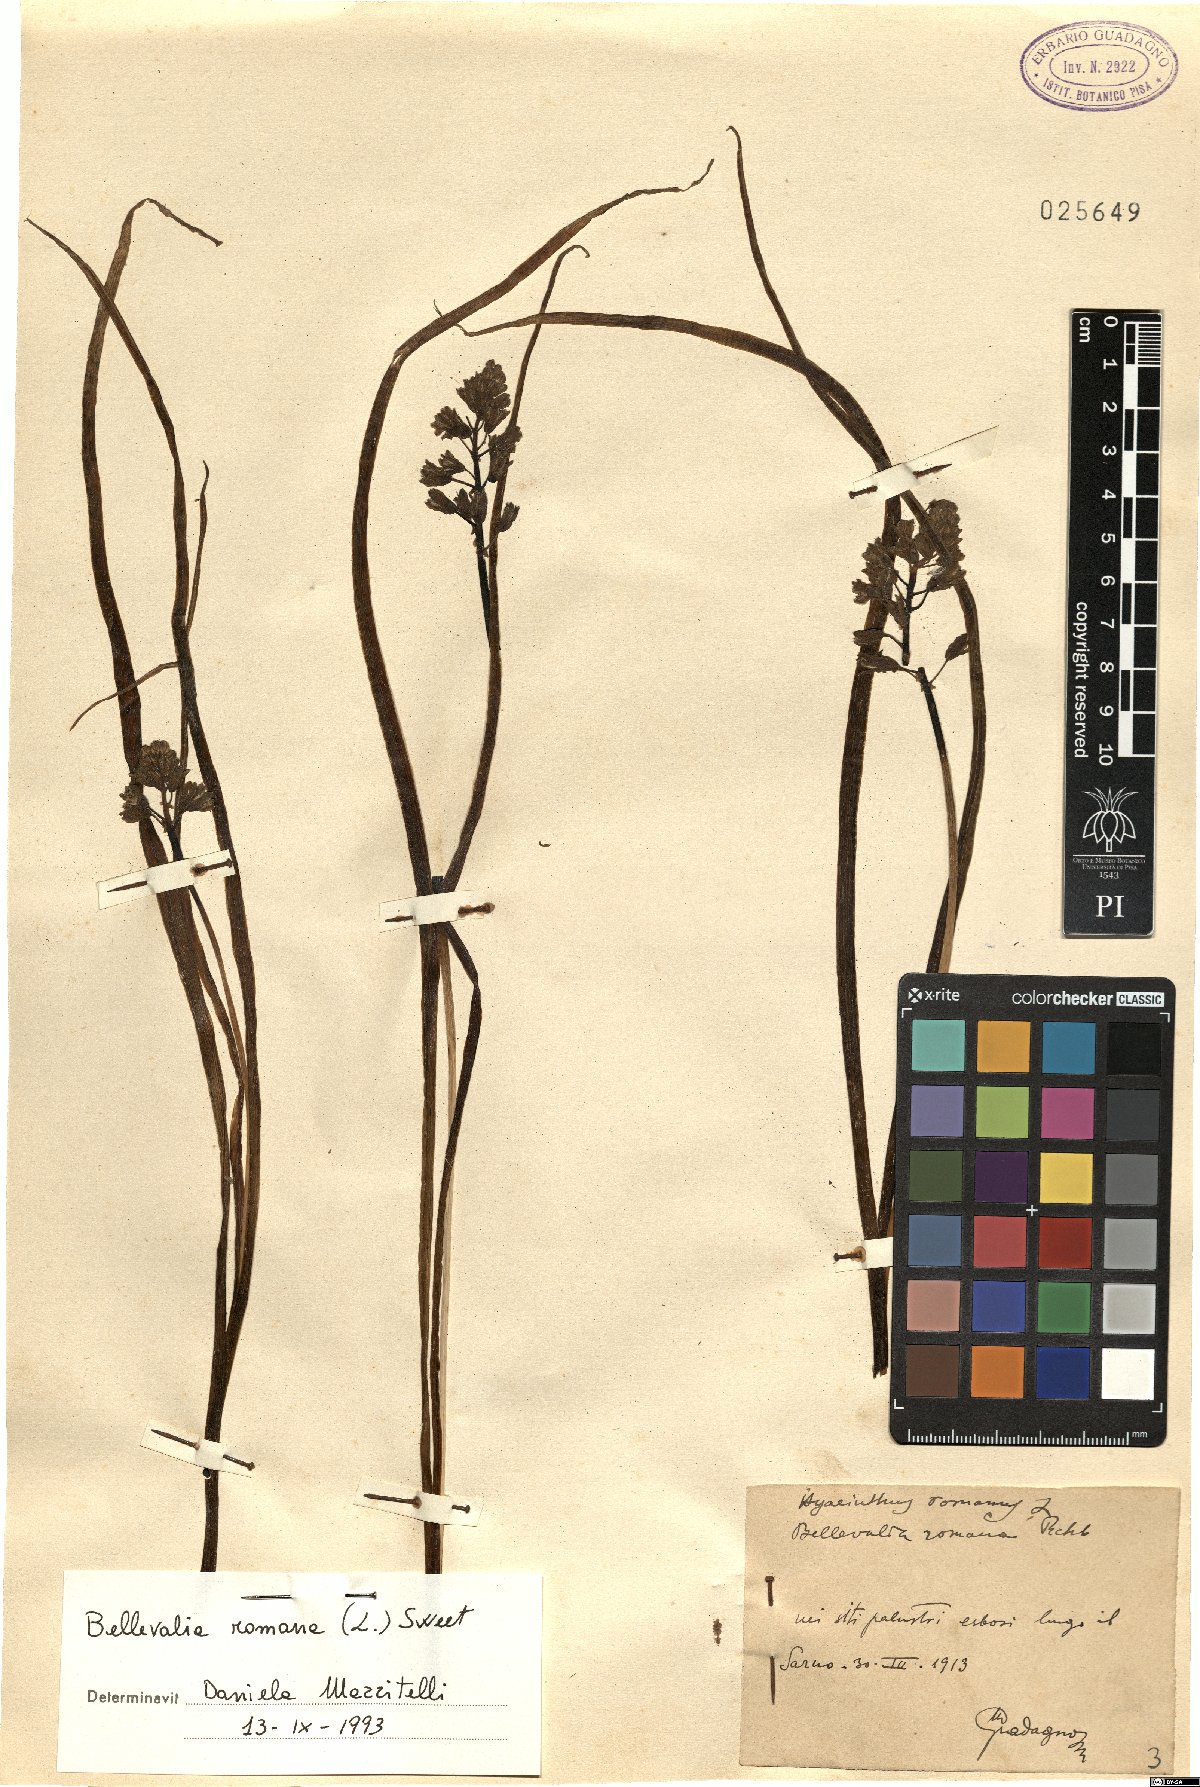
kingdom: Plantae
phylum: Tracheophyta
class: Liliopsida
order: Asparagales
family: Asparagaceae
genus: Bellevalia
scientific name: Bellevalia romana
